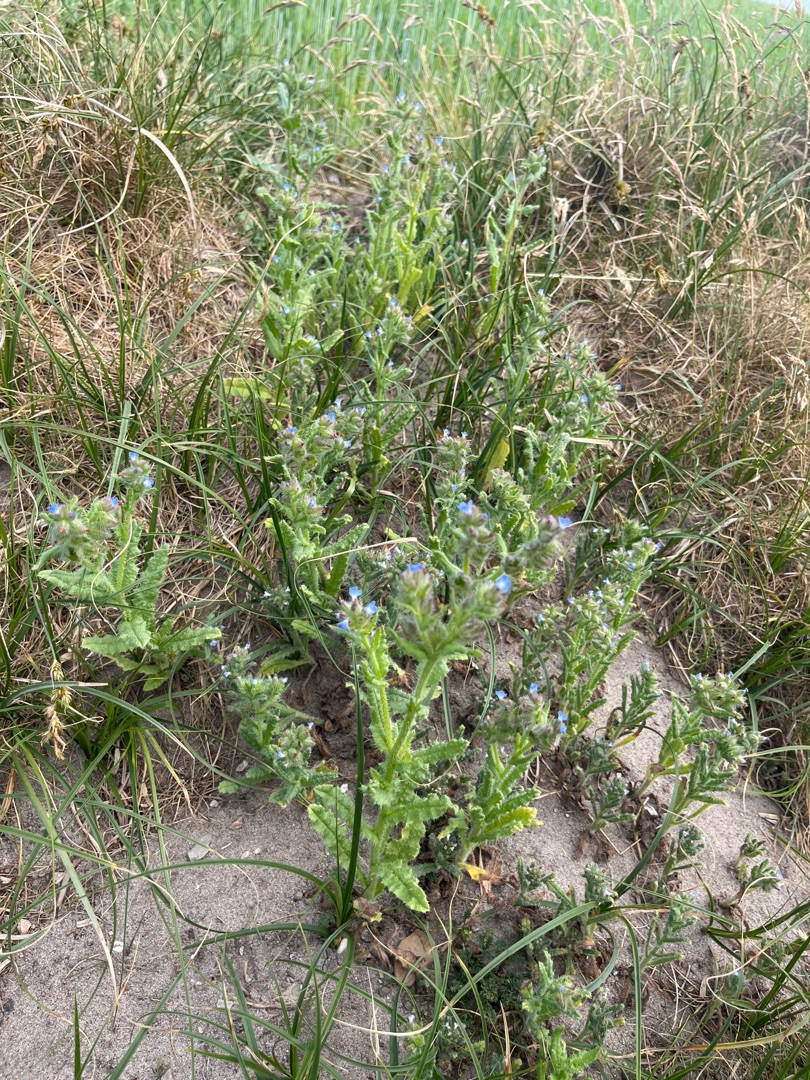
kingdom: Plantae
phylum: Tracheophyta
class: Magnoliopsida
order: Boraginales
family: Boraginaceae
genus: Lycopsis
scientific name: Lycopsis arvensis
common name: Krumhals
